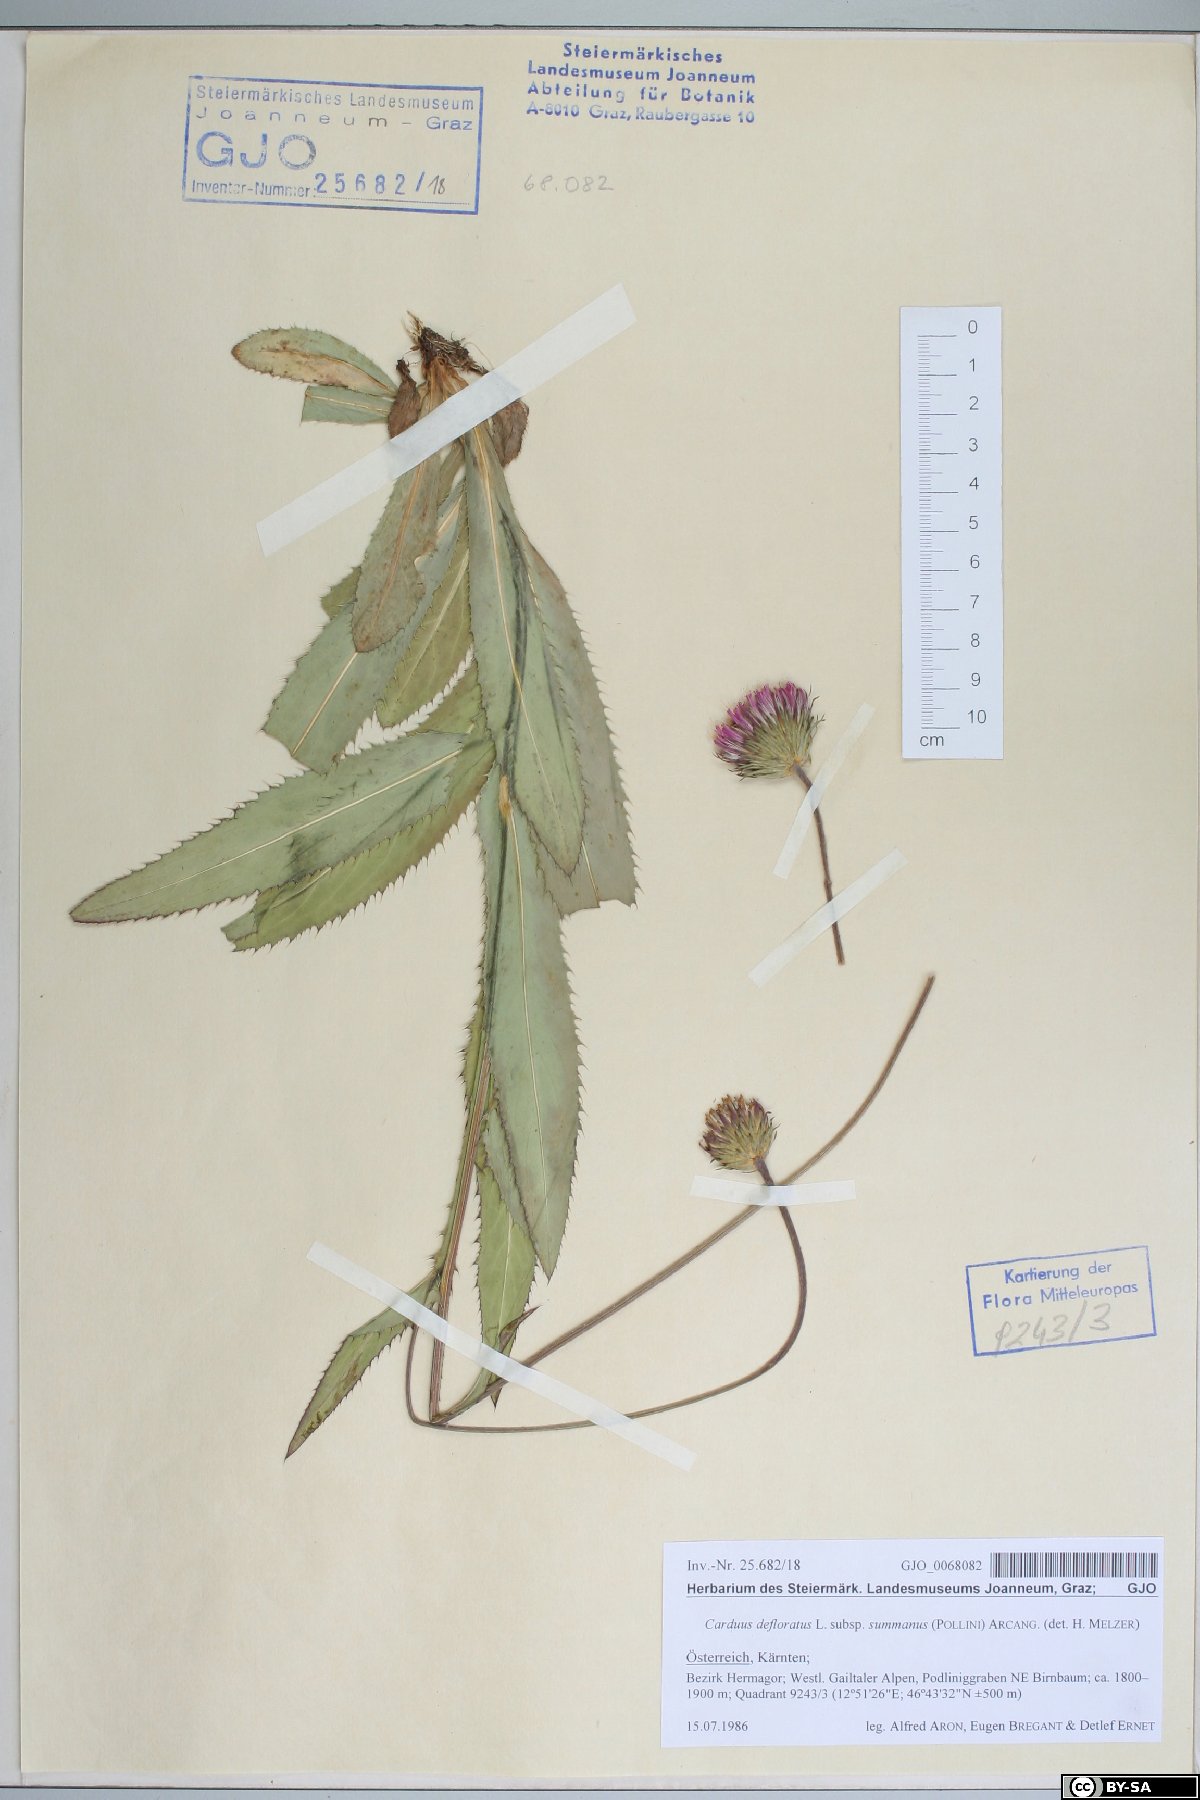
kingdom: Plantae
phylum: Tracheophyta
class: Magnoliopsida
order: Asterales
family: Asteraceae
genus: Carduus
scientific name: Carduus defloratus
